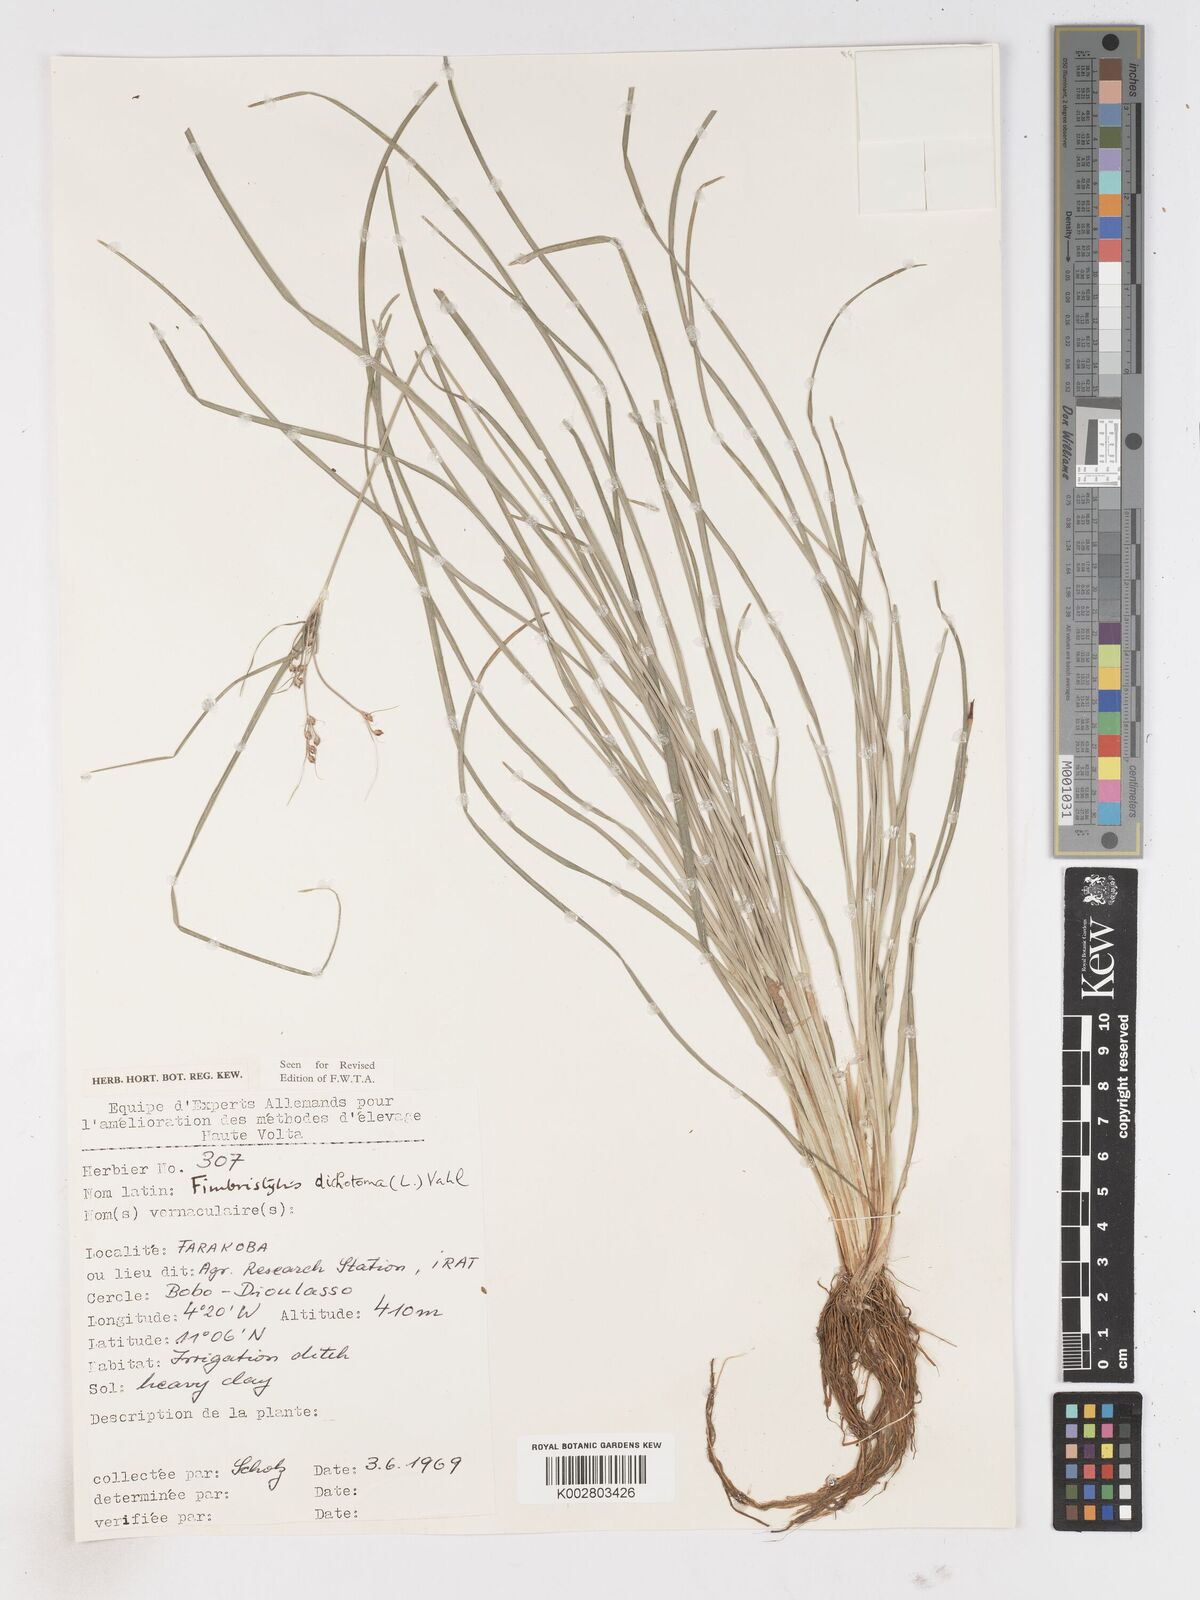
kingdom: Plantae
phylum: Tracheophyta
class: Liliopsida
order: Poales
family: Cyperaceae
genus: Fimbristylis
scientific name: Fimbristylis dichotoma
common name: Forked fimbry
